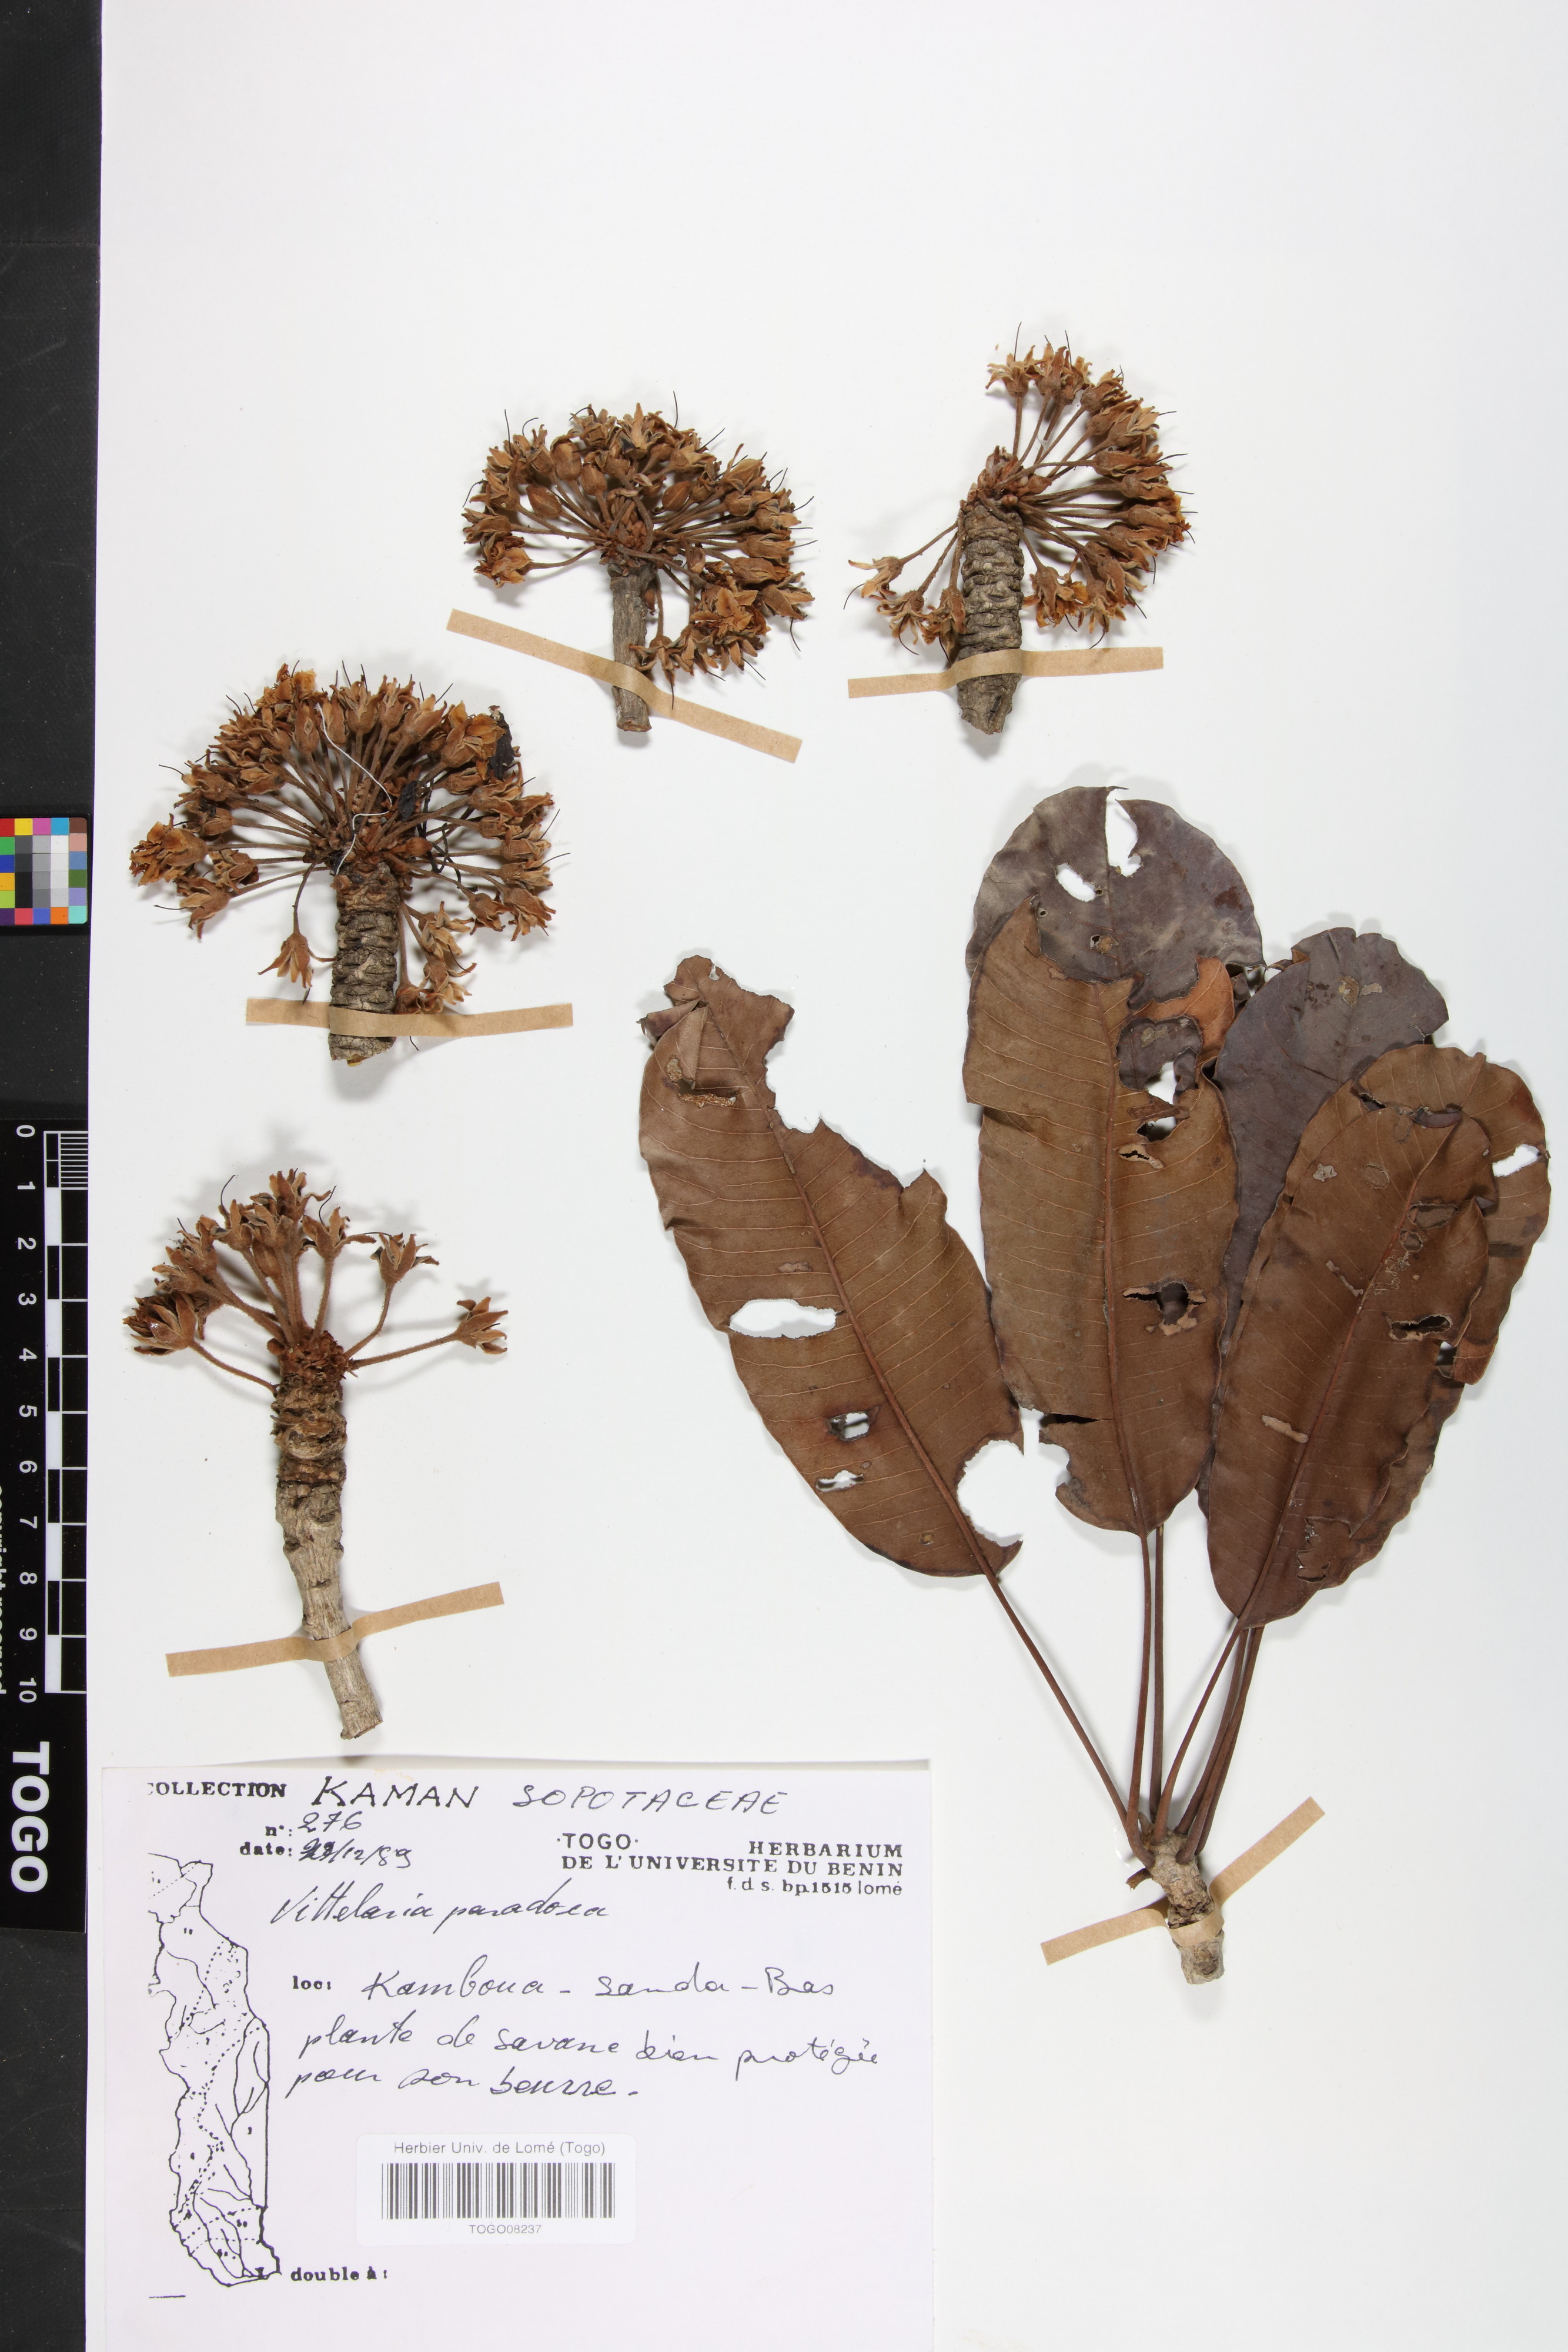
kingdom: Plantae
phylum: Tracheophyta
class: Magnoliopsida
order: Ericales
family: Sapotaceae
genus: Vitellaria
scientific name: Vitellaria paradoxa
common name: Shea butter tree
